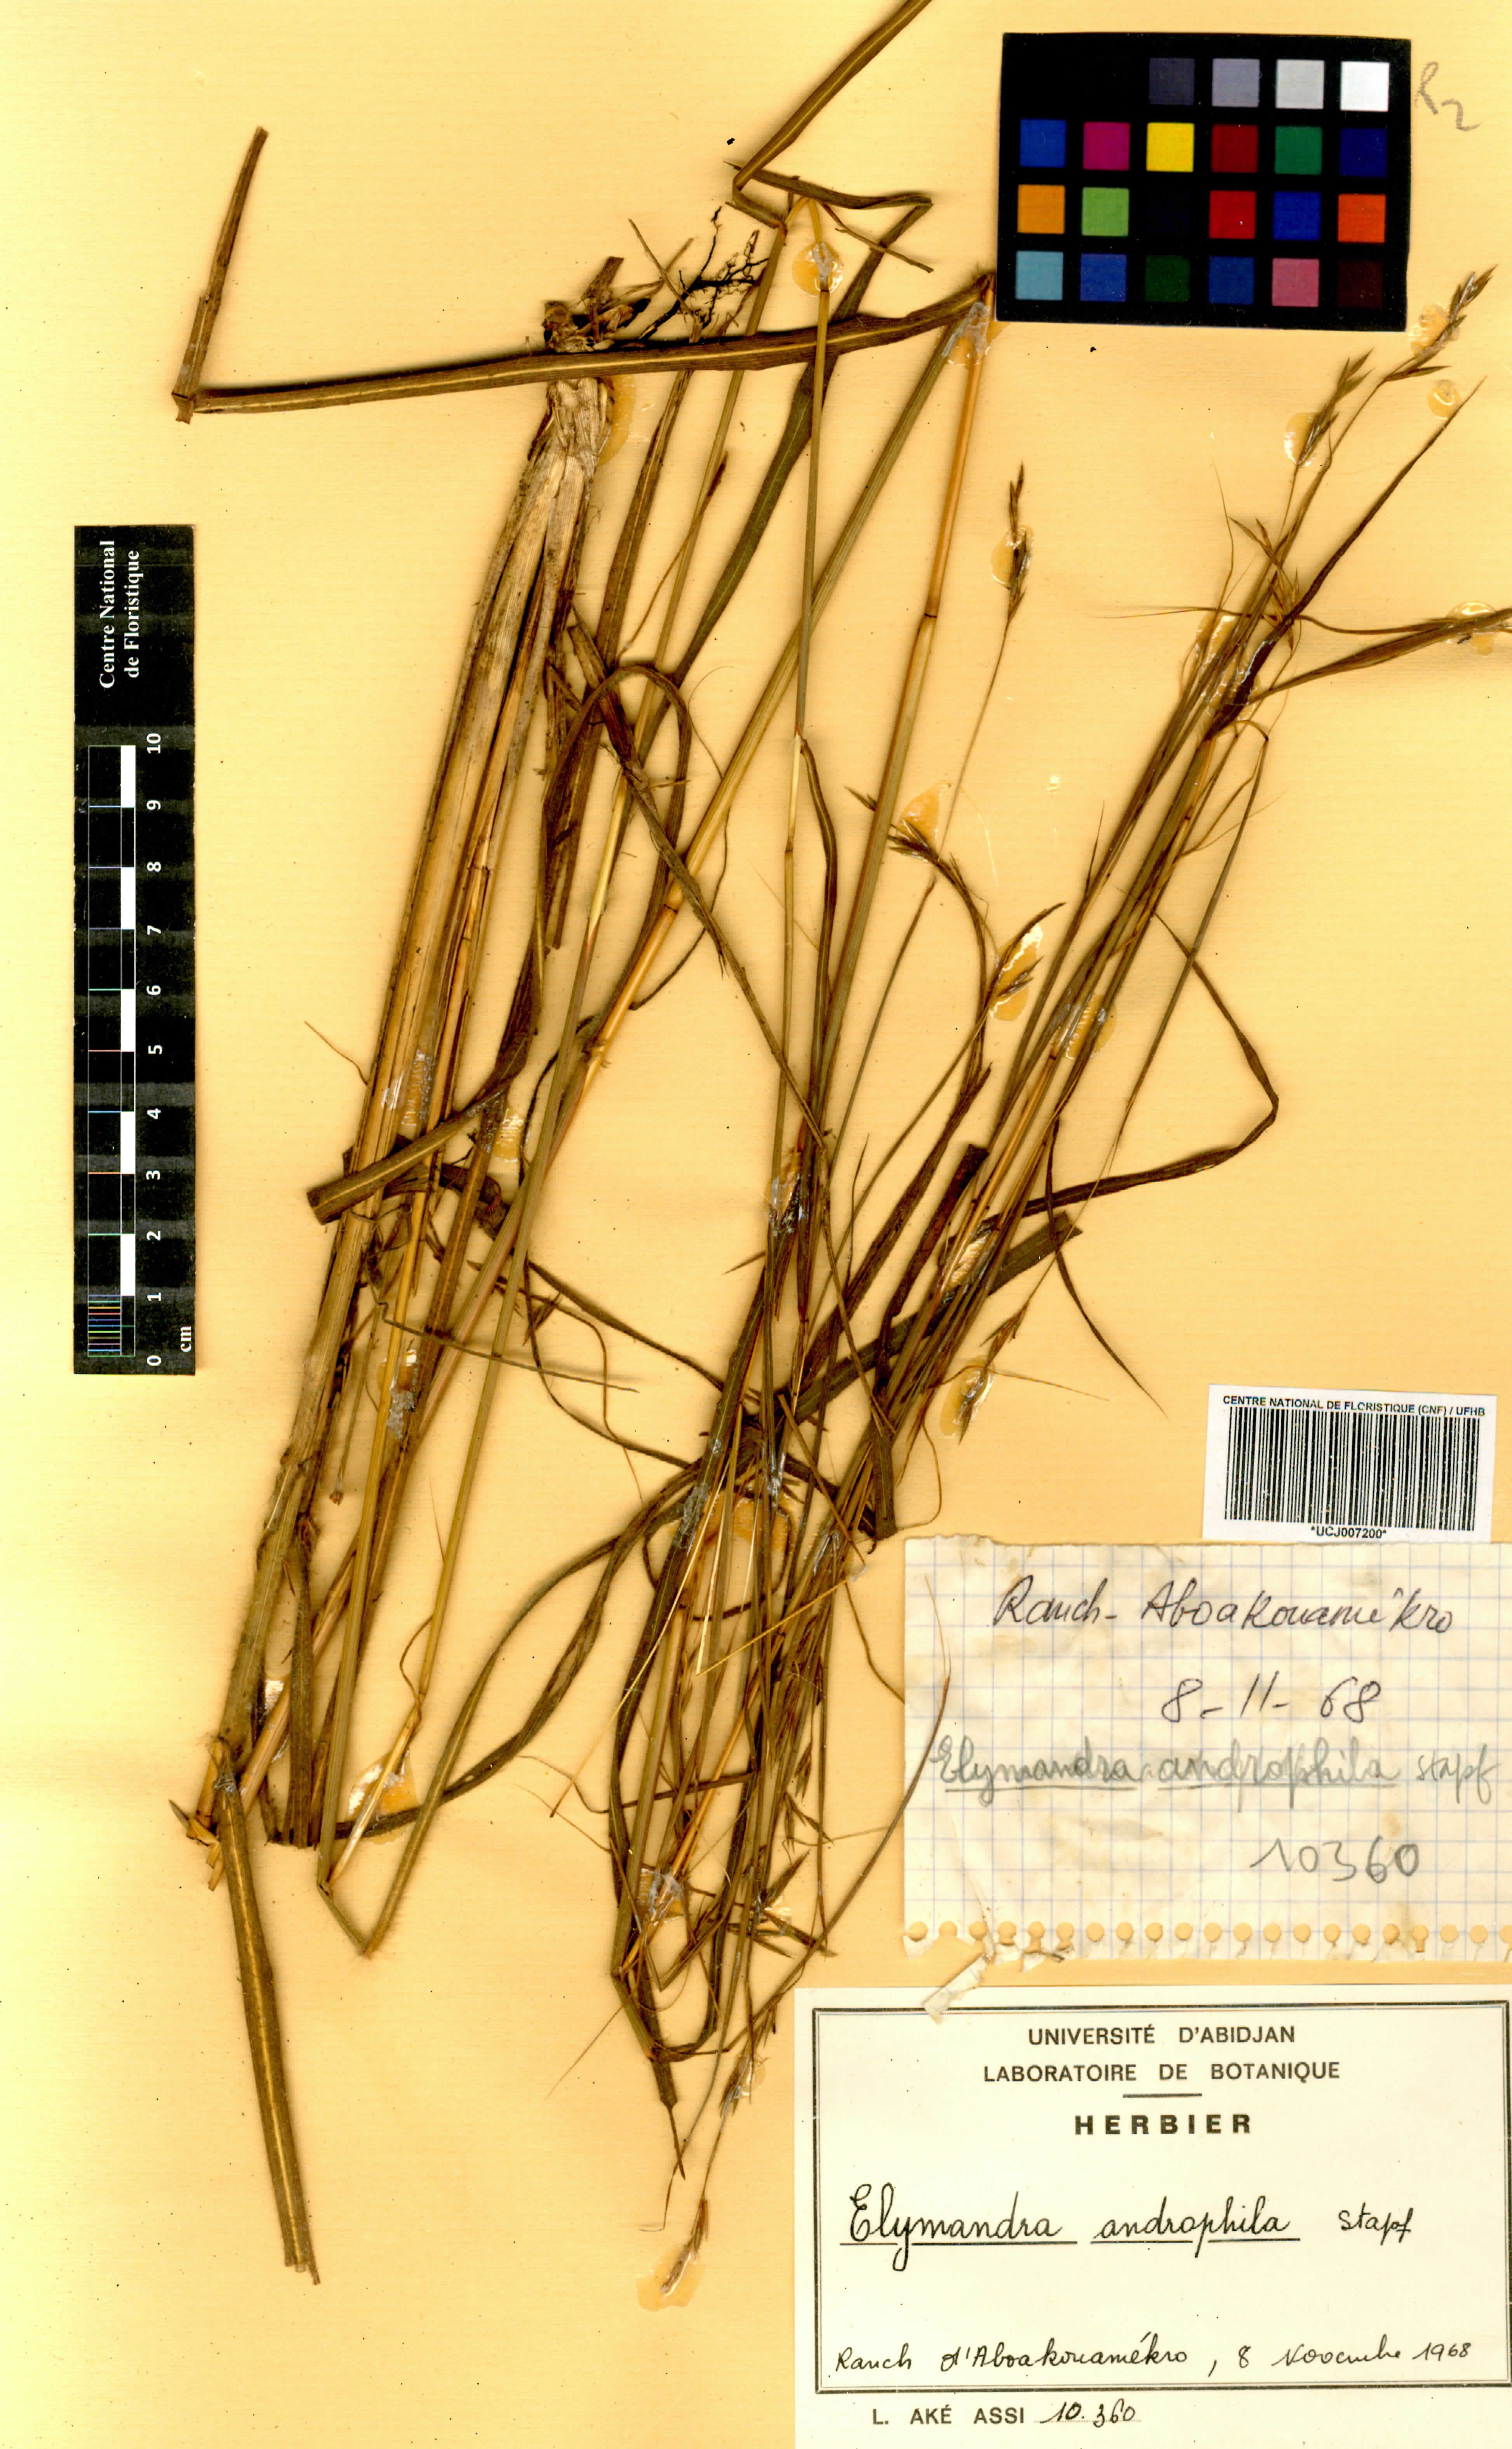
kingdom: Plantae
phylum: Tracheophyta
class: Liliopsida
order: Poales
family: Poaceae
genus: Elymandra
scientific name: Elymandra androphila
